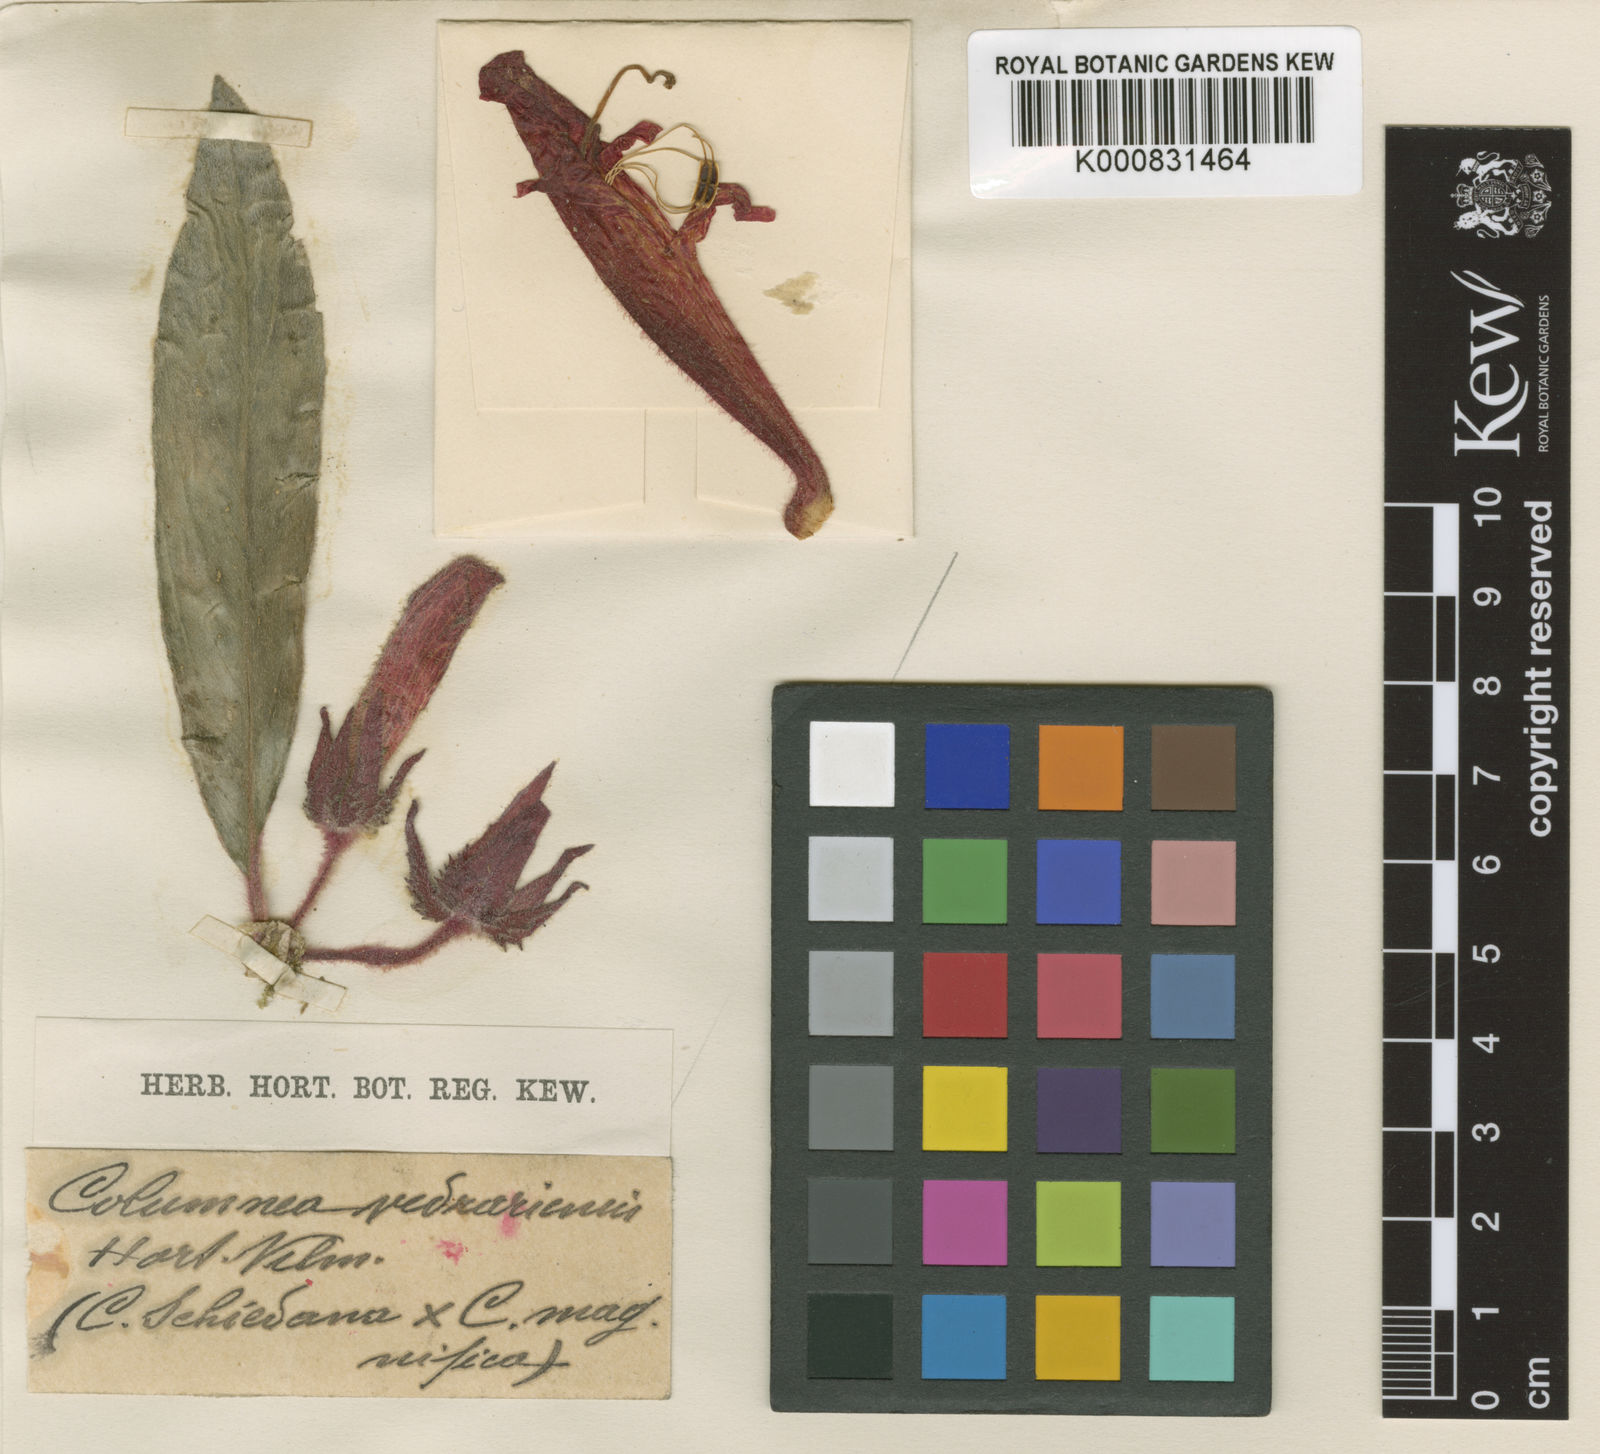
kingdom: Plantae
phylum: Tracheophyta
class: Magnoliopsida
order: Lamiales
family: Gesneriaceae
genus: Columnea
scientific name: Columnea
